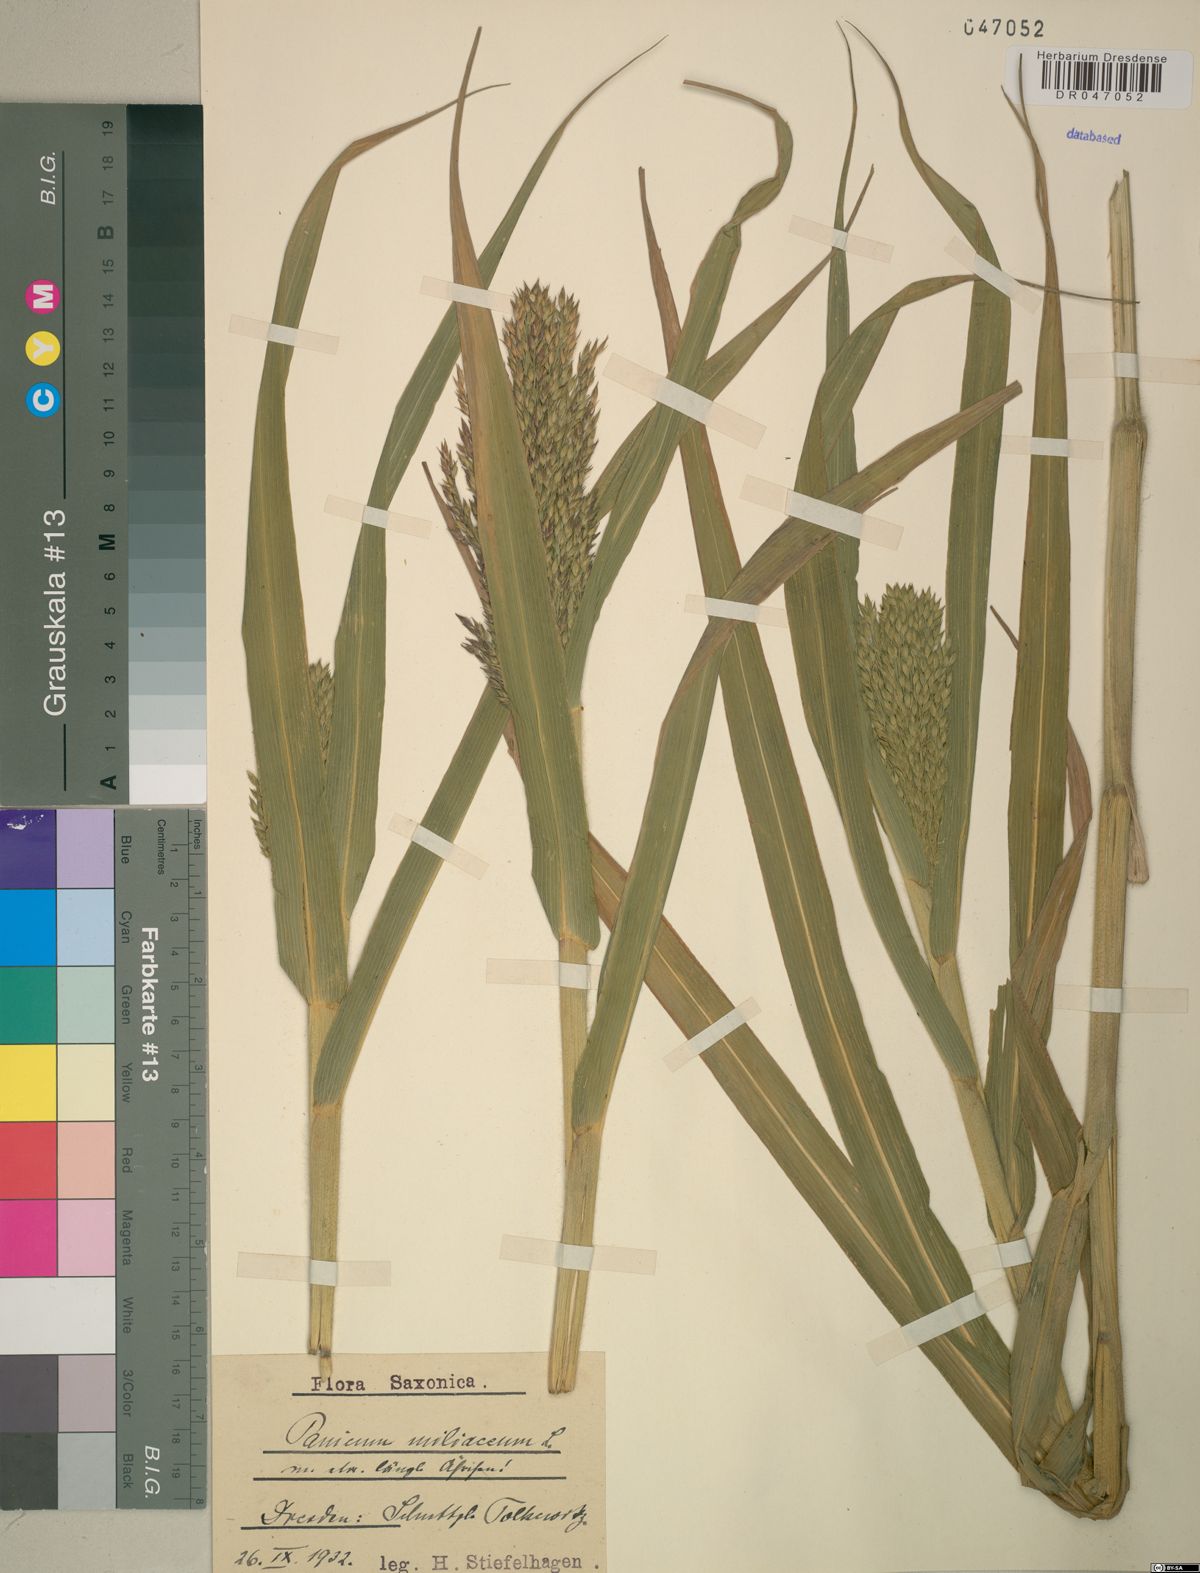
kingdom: Plantae
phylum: Tracheophyta
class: Liliopsida
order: Poales
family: Poaceae
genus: Panicum
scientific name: Panicum miliaceum
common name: Common millet
